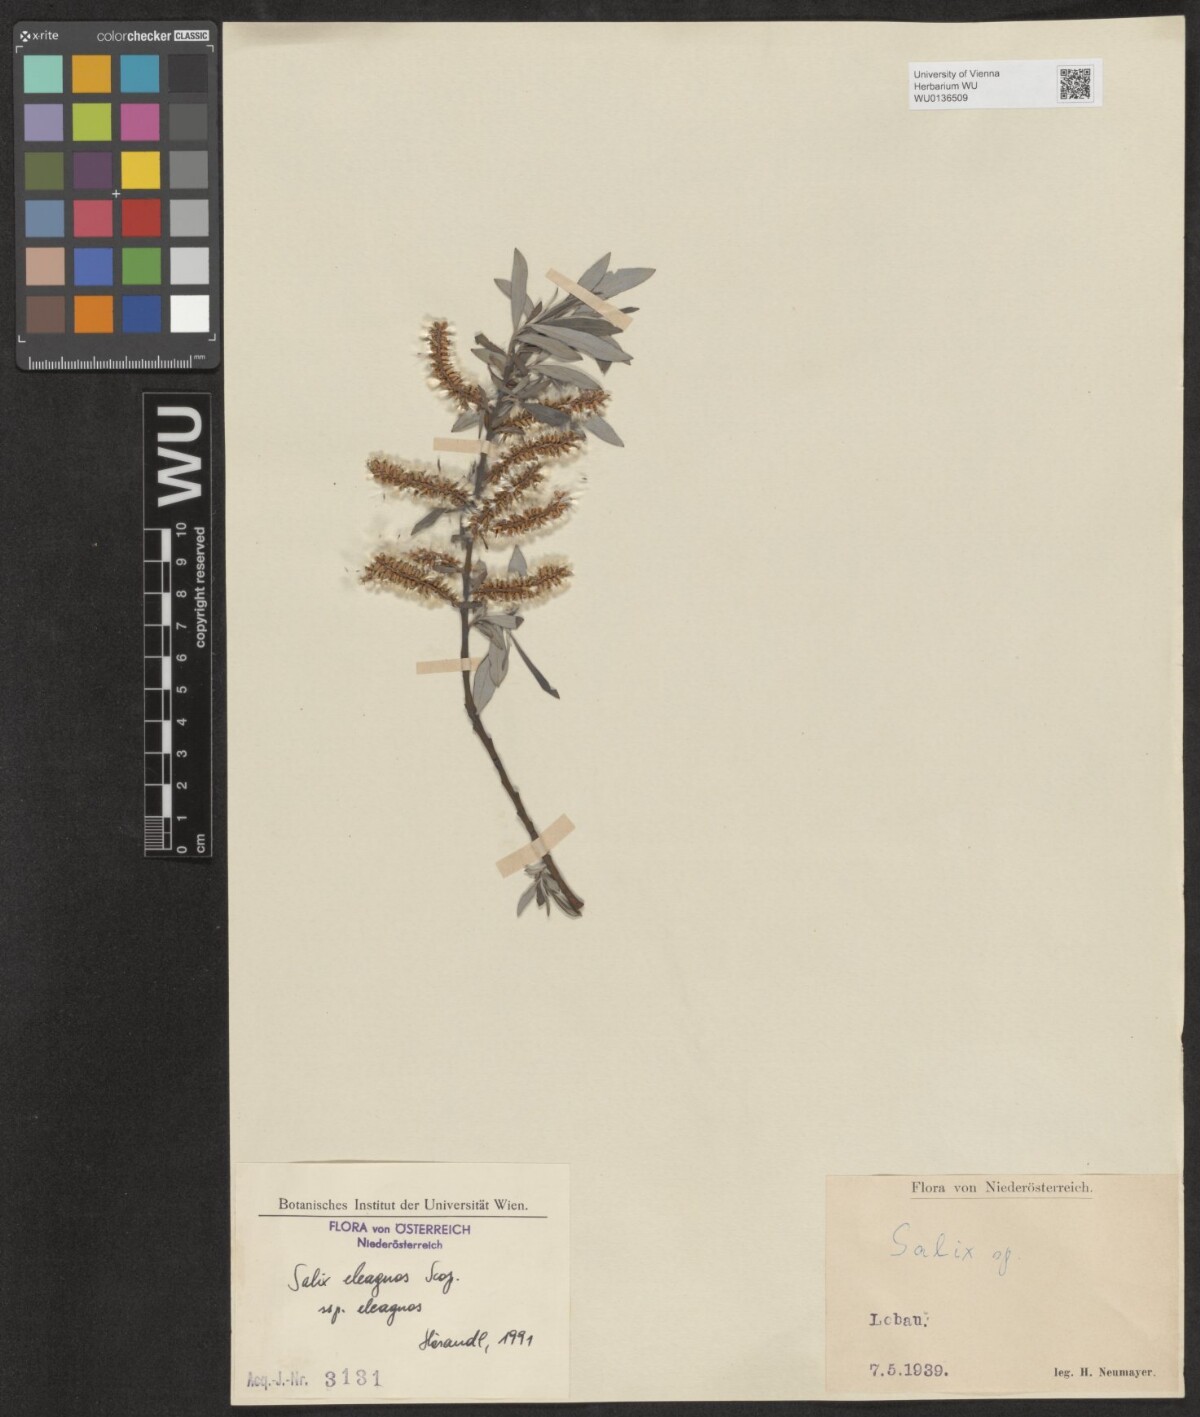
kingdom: Plantae
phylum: Tracheophyta
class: Magnoliopsida
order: Malpighiales
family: Salicaceae
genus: Salix
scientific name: Salix eleagnos
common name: Elaeagnus willow
